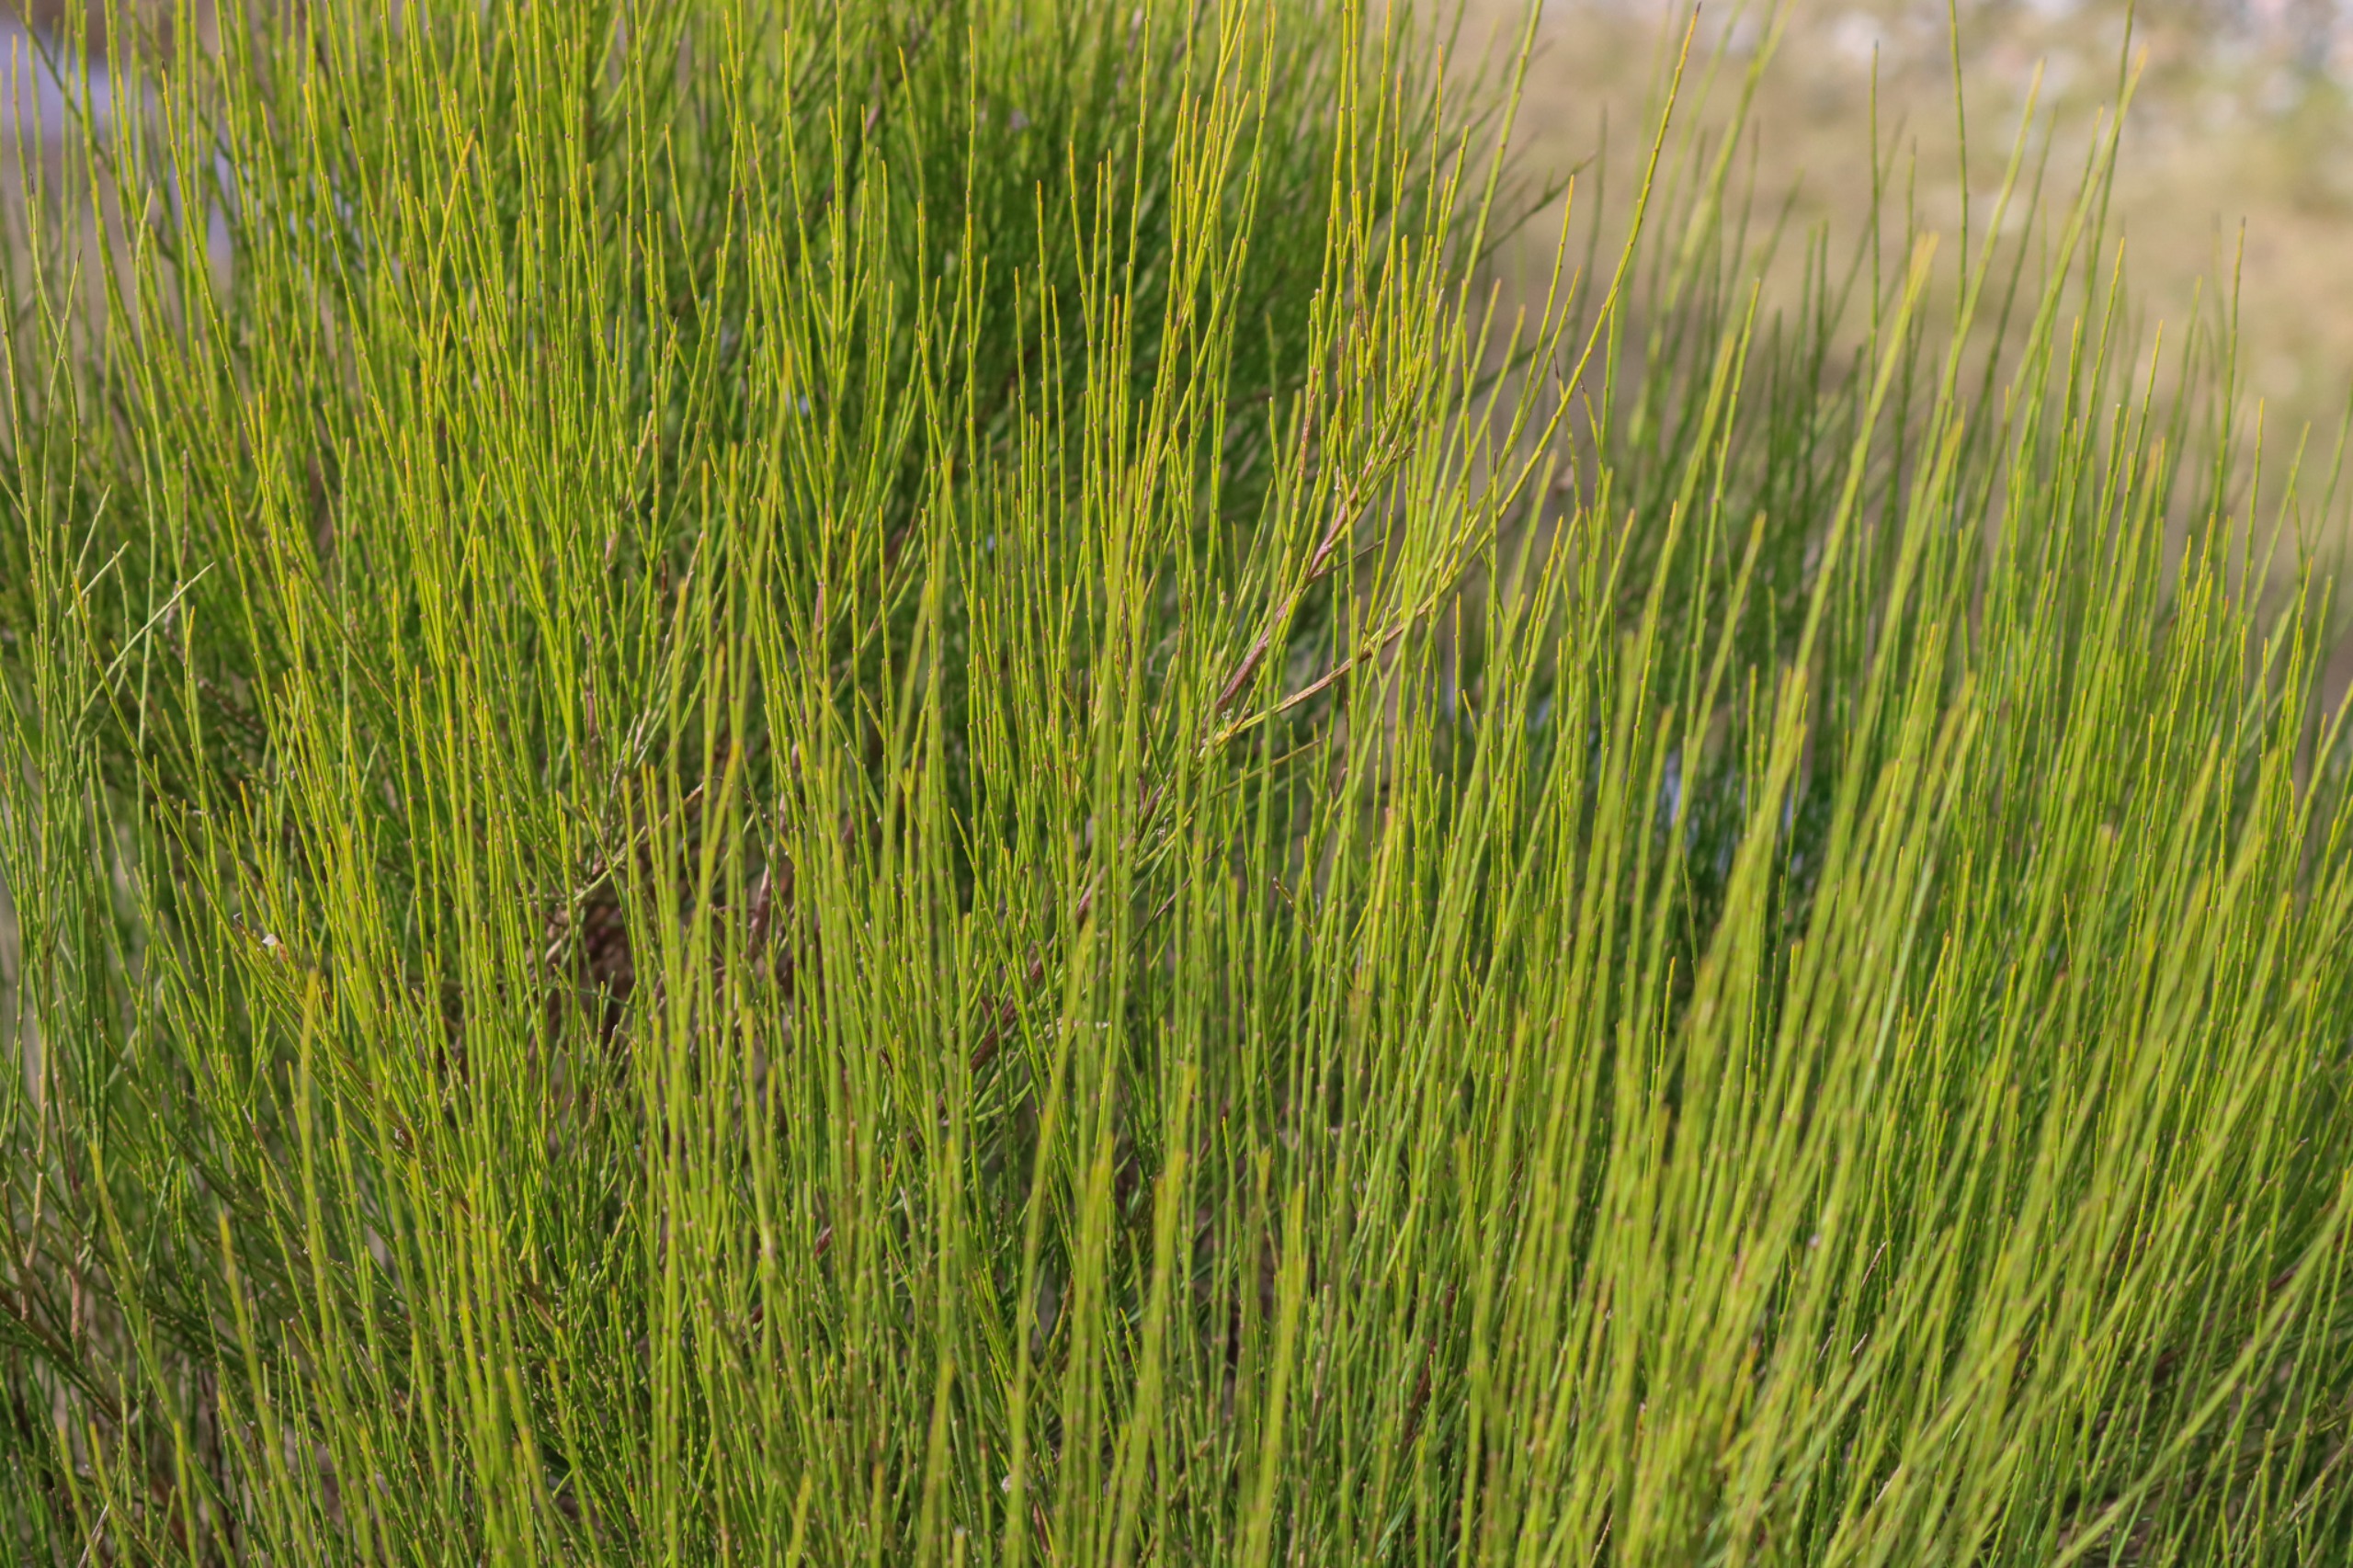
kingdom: Plantae
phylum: Tracheophyta
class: Magnoliopsida
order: Fabales
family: Fabaceae
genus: Cytisus
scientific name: Cytisus scoparius
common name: Almindelig gyvel
